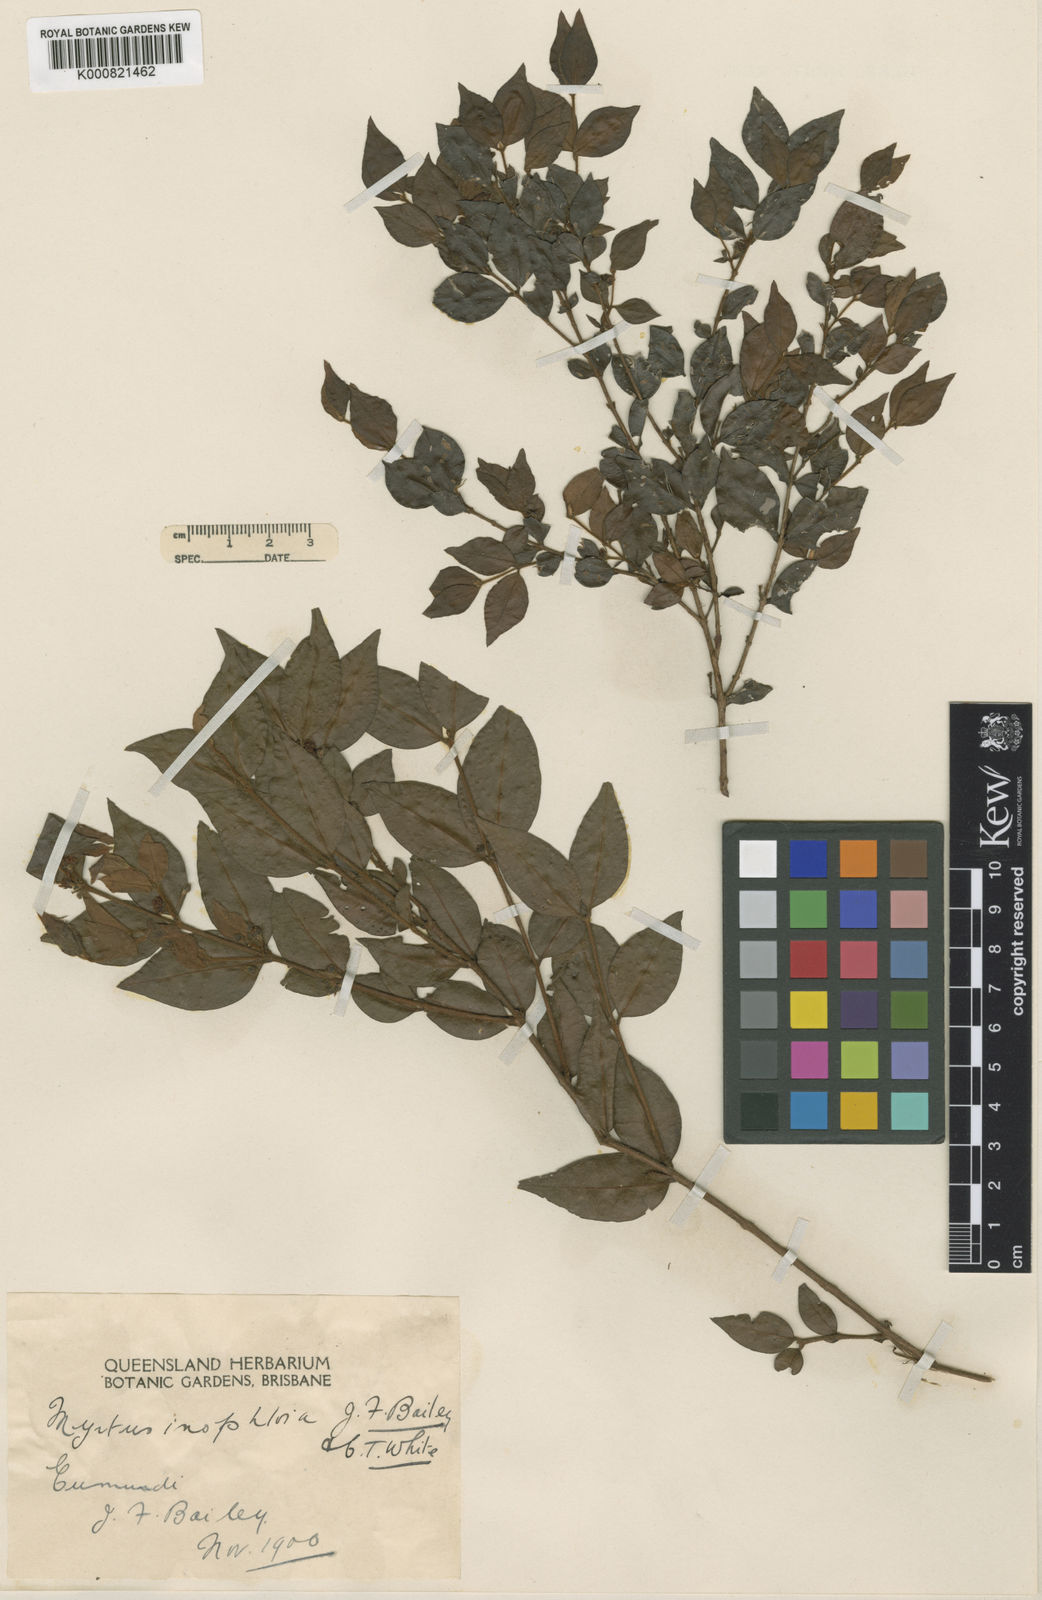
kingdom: Plantae
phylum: Tracheophyta
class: Magnoliopsida
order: Myrtales
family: Myrtaceae
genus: Gossia
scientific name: Gossia inophloia
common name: Threadbark myrtle
